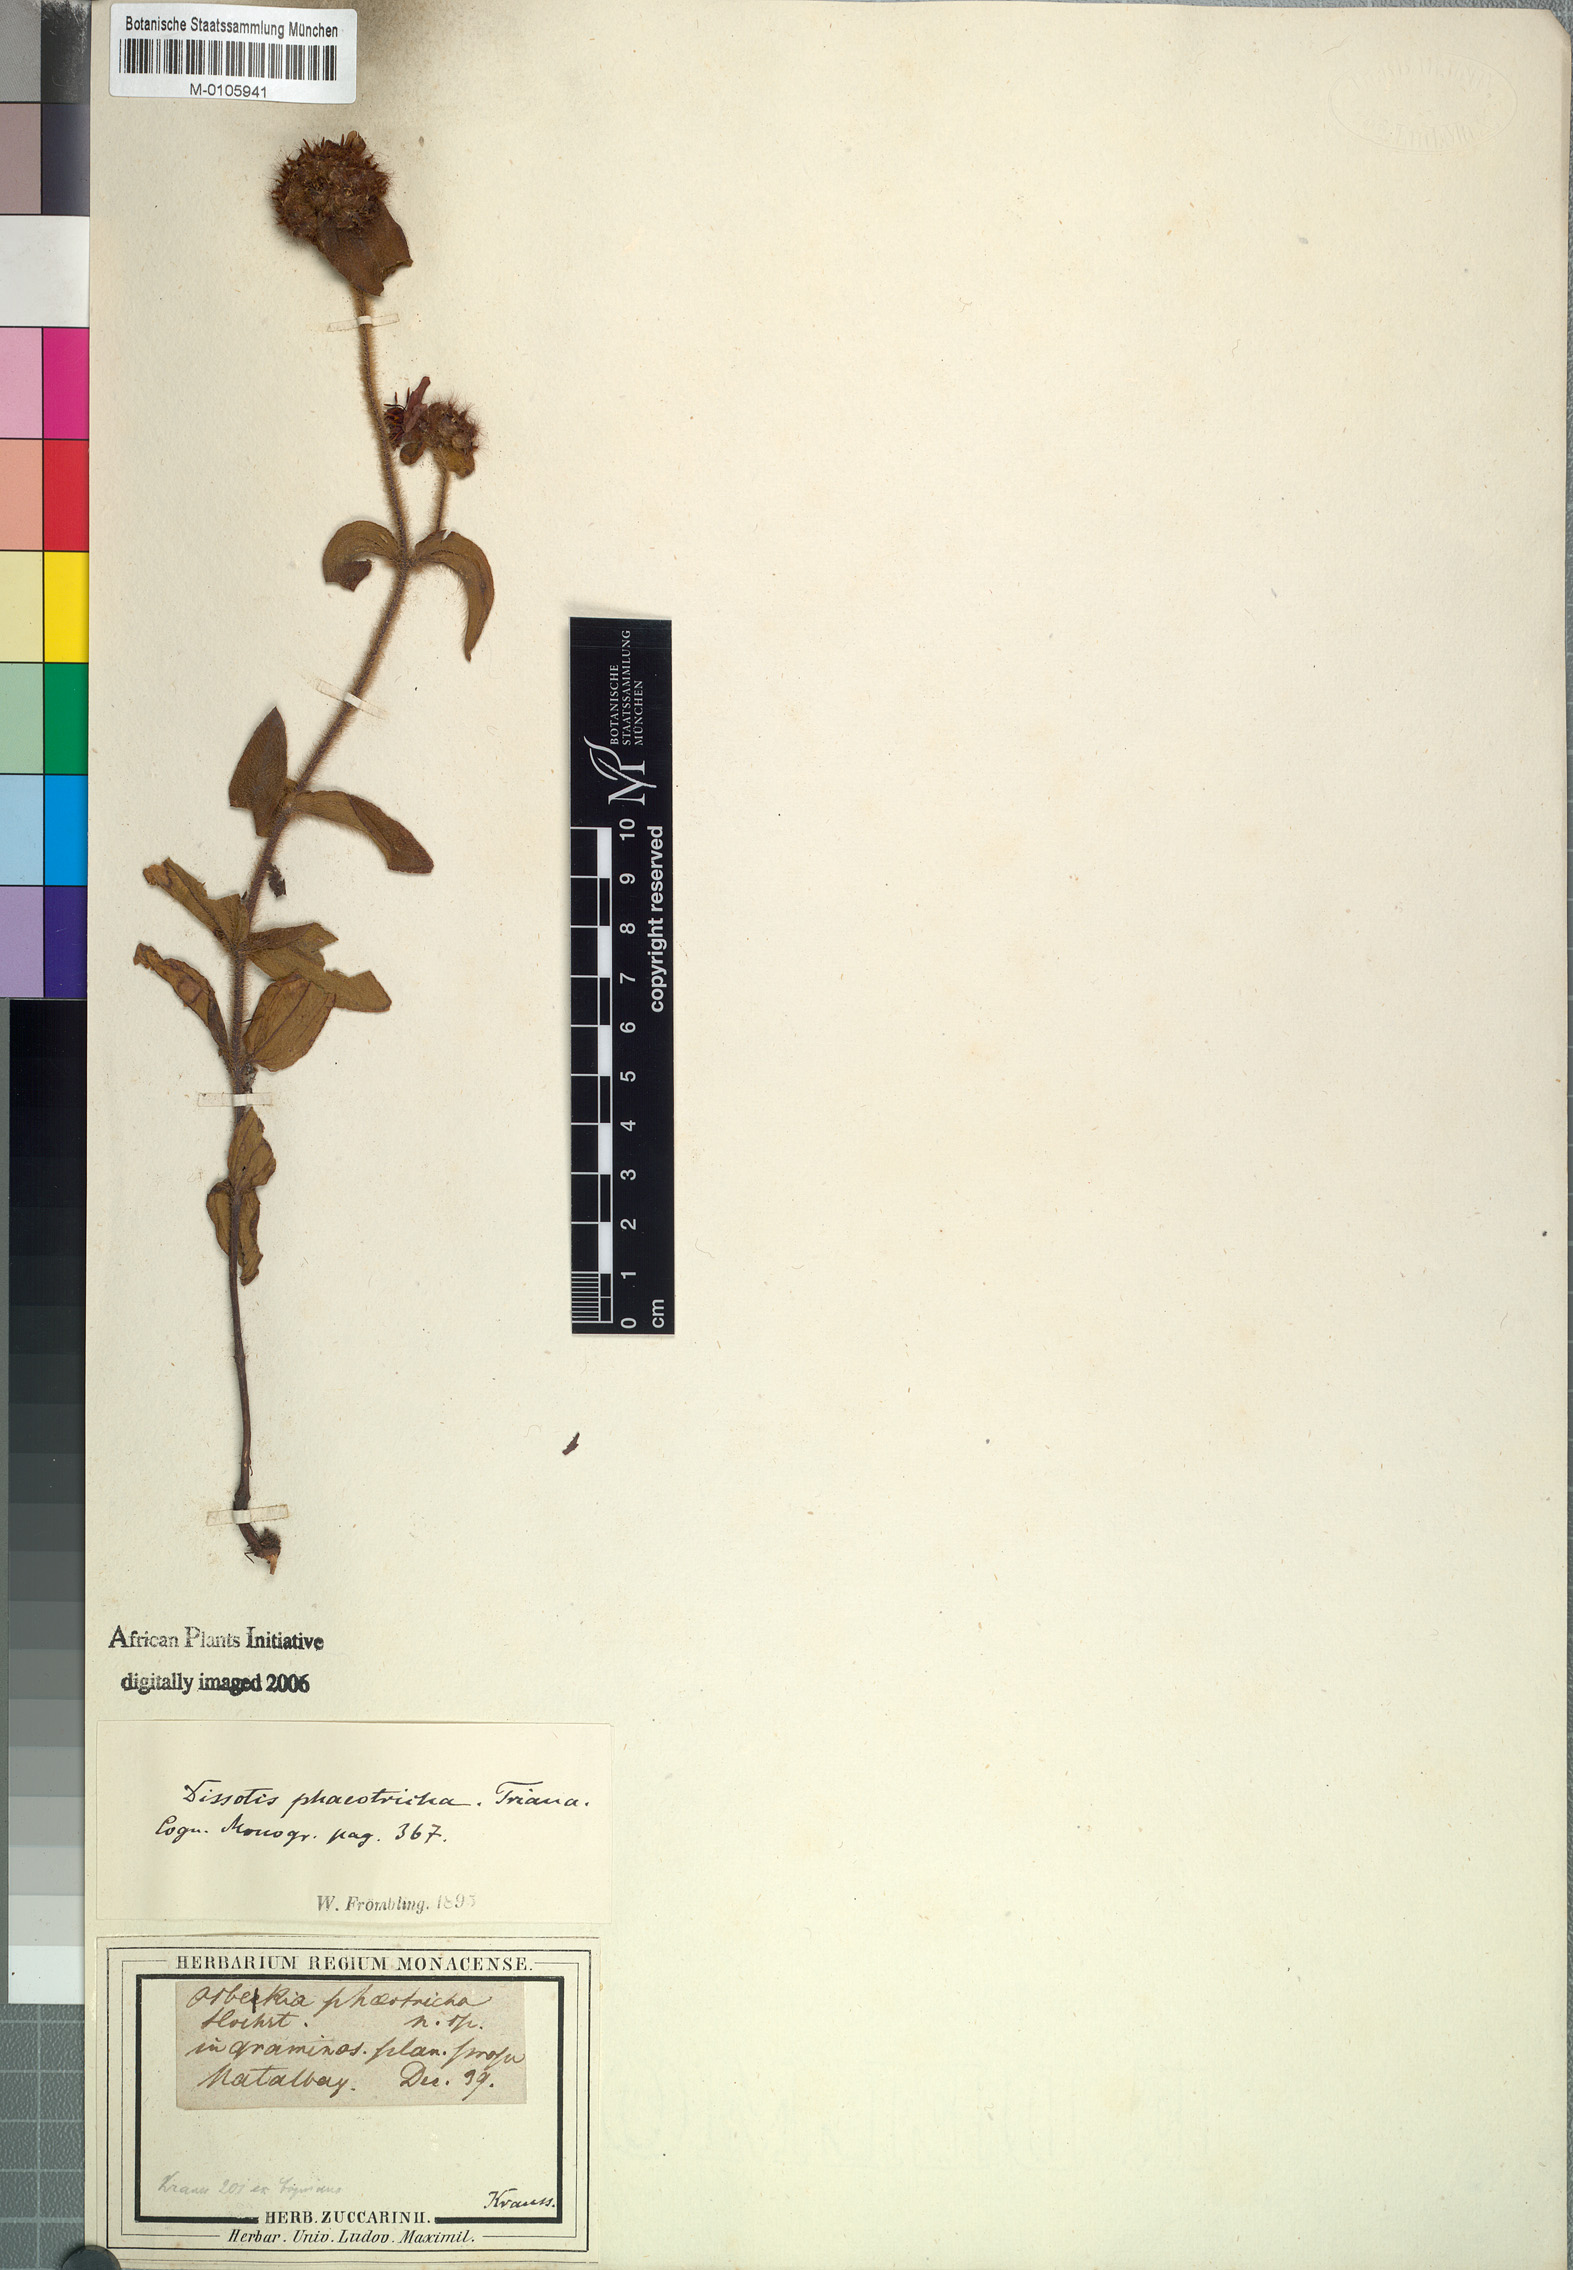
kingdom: Plantae
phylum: Tracheophyta
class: Magnoliopsida
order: Myrtales
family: Melastomataceae
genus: Antherotoma
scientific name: Antherotoma phaeotricha
